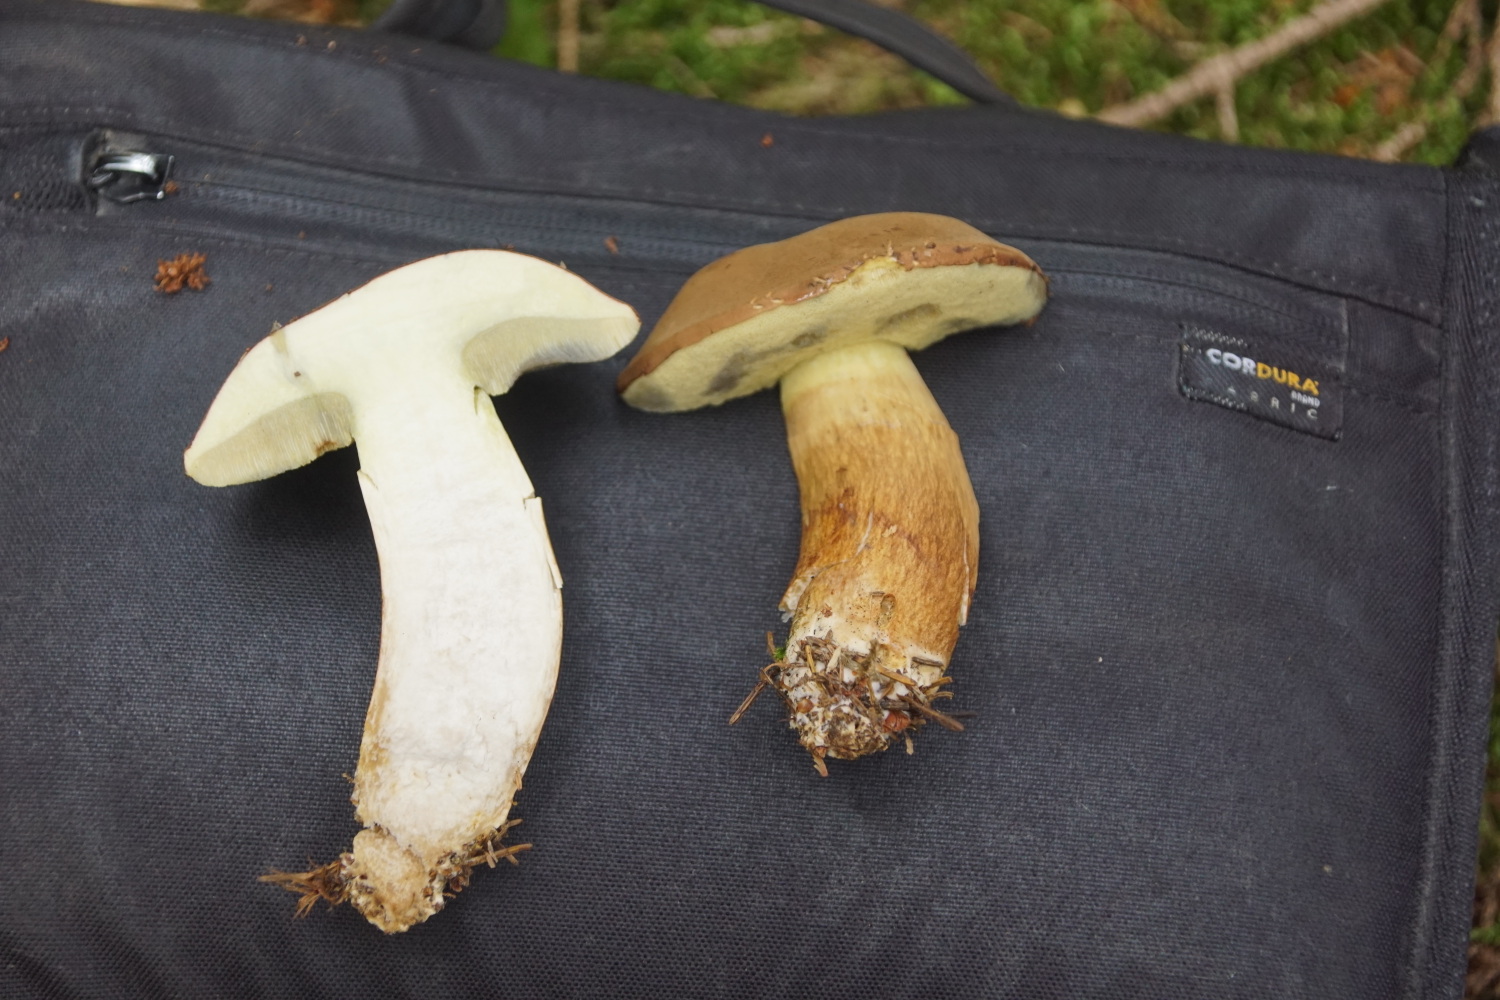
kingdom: Fungi
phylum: Basidiomycota
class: Agaricomycetes
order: Boletales
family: Boletaceae
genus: Imleria
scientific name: Imleria badia
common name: brunstokket rørhat
